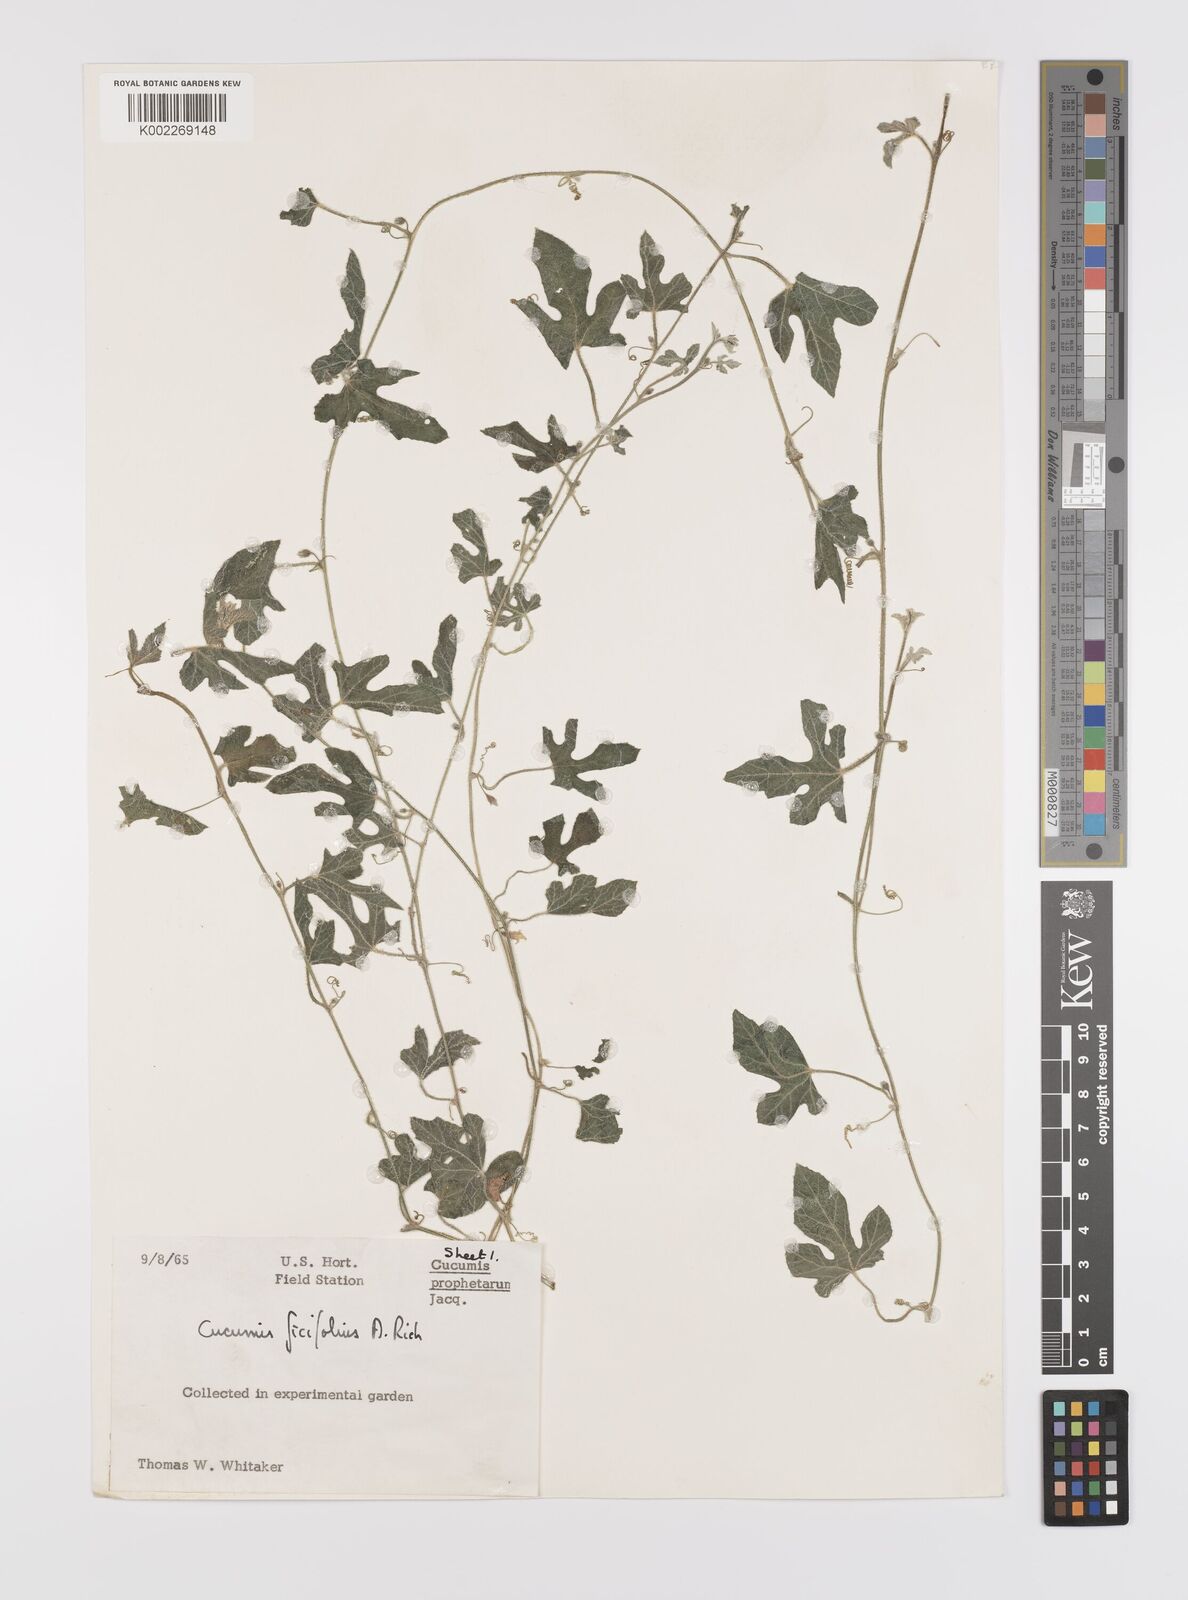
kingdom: Plantae
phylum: Tracheophyta
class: Magnoliopsida
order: Cucurbitales
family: Cucurbitaceae
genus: Cucumis
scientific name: Cucumis ficifolius
